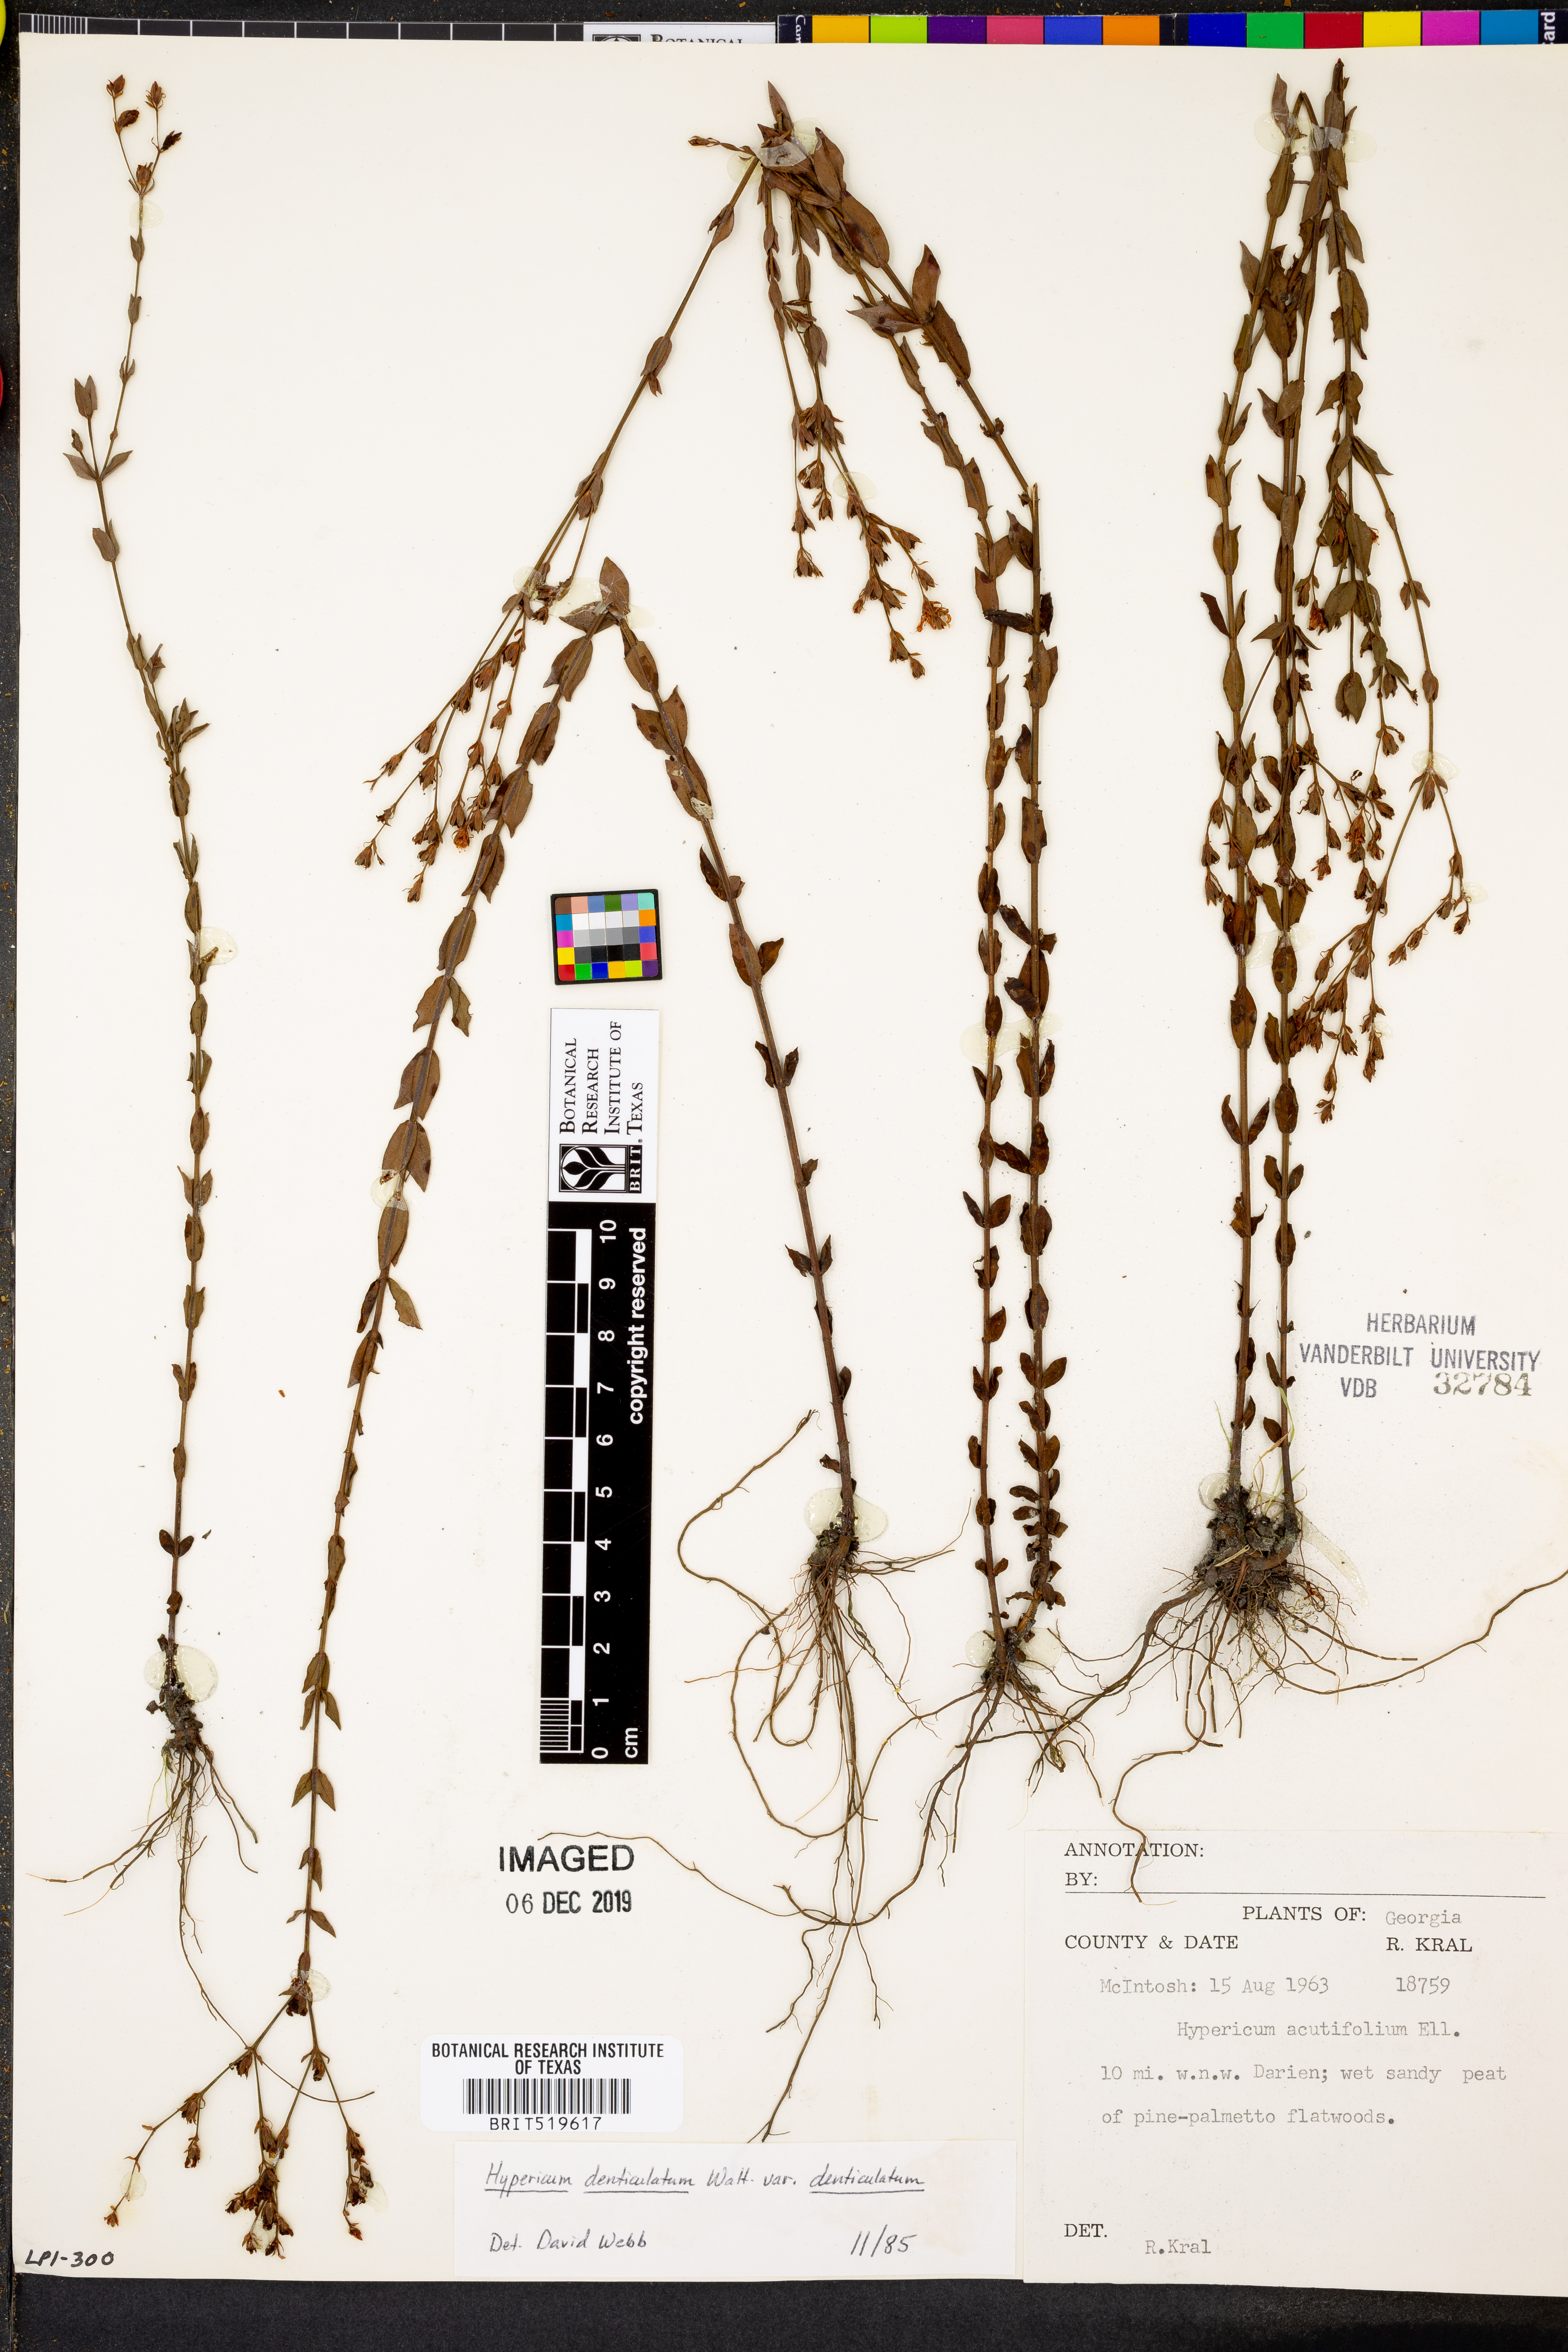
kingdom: Plantae
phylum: Tracheophyta
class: Magnoliopsida
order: Malpighiales
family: Hypericaceae
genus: Hypericum
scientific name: Hypericum denticulatum
